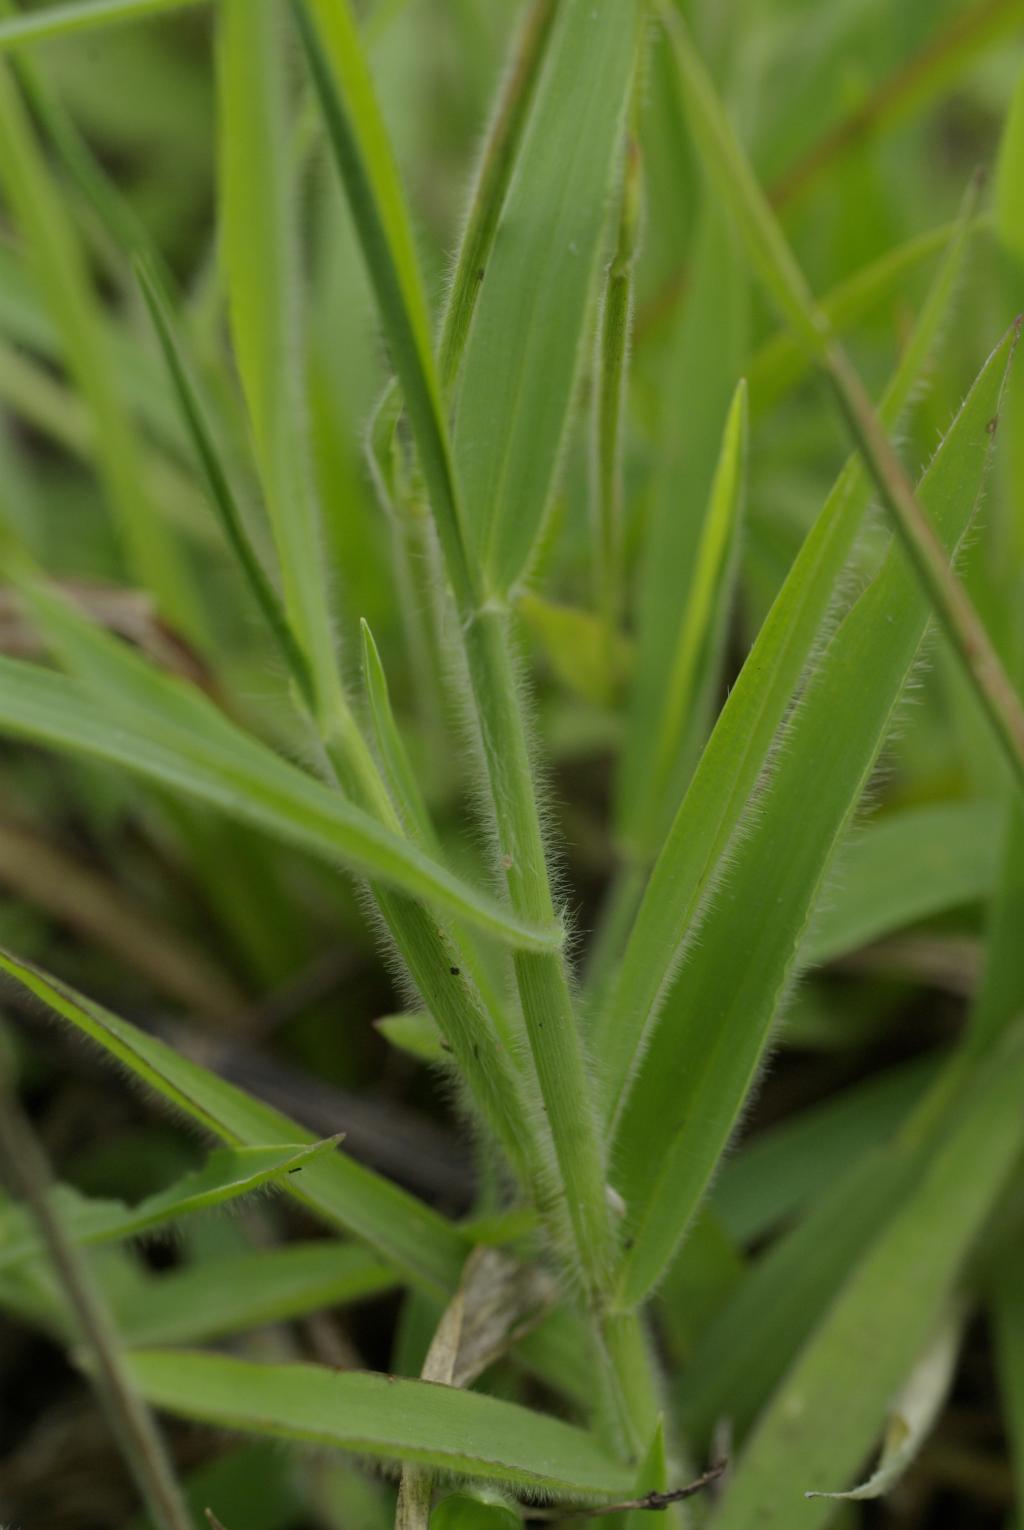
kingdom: Plantae
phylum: Tracheophyta
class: Liliopsida
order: Poales
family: Poaceae
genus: Digitaria
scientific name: Digitaria mollicoma
